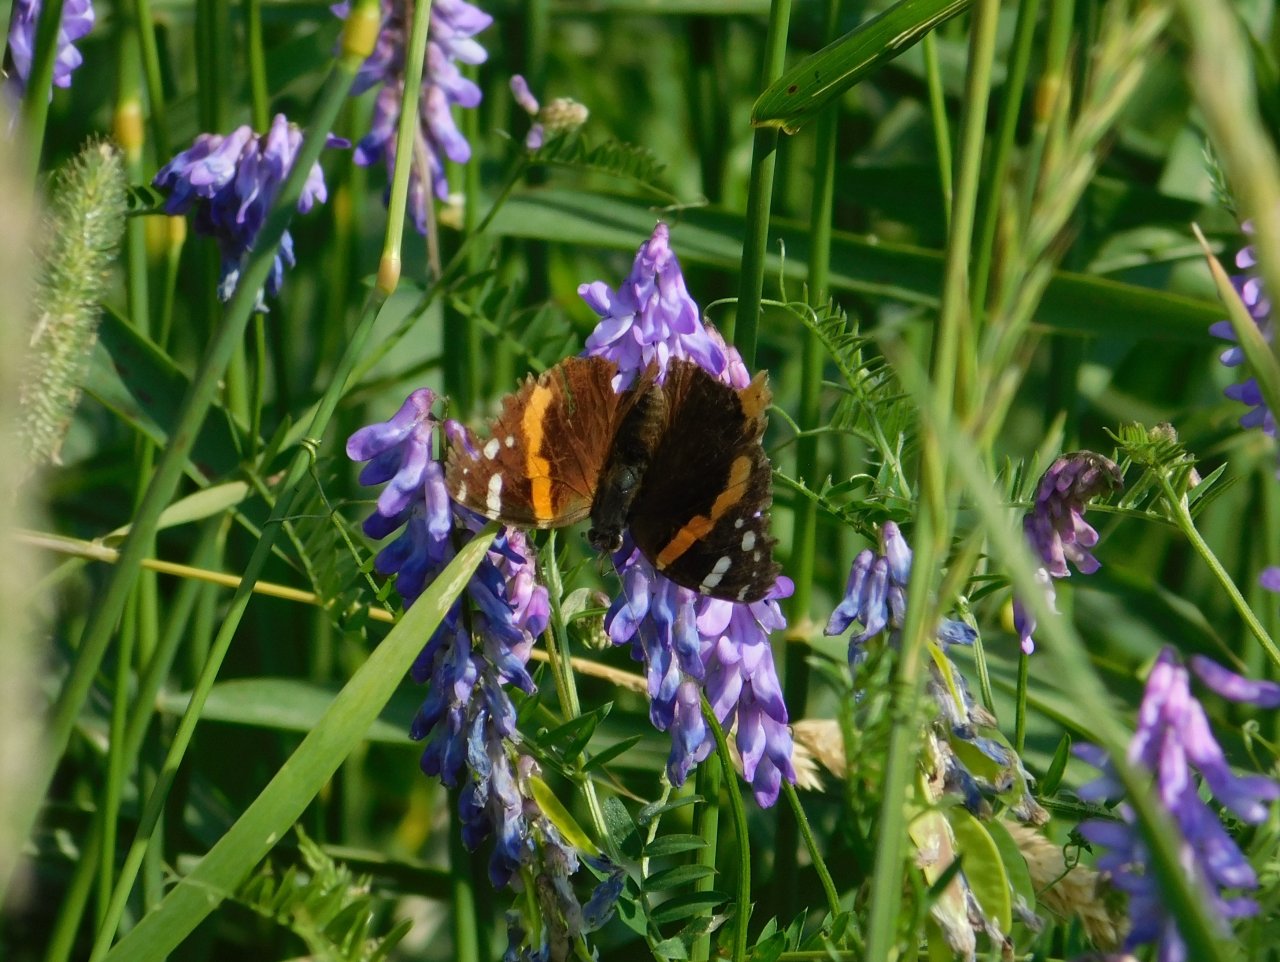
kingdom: Animalia
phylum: Arthropoda
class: Insecta
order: Lepidoptera
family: Nymphalidae
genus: Vanessa
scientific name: Vanessa atalanta
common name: Red Admiral
